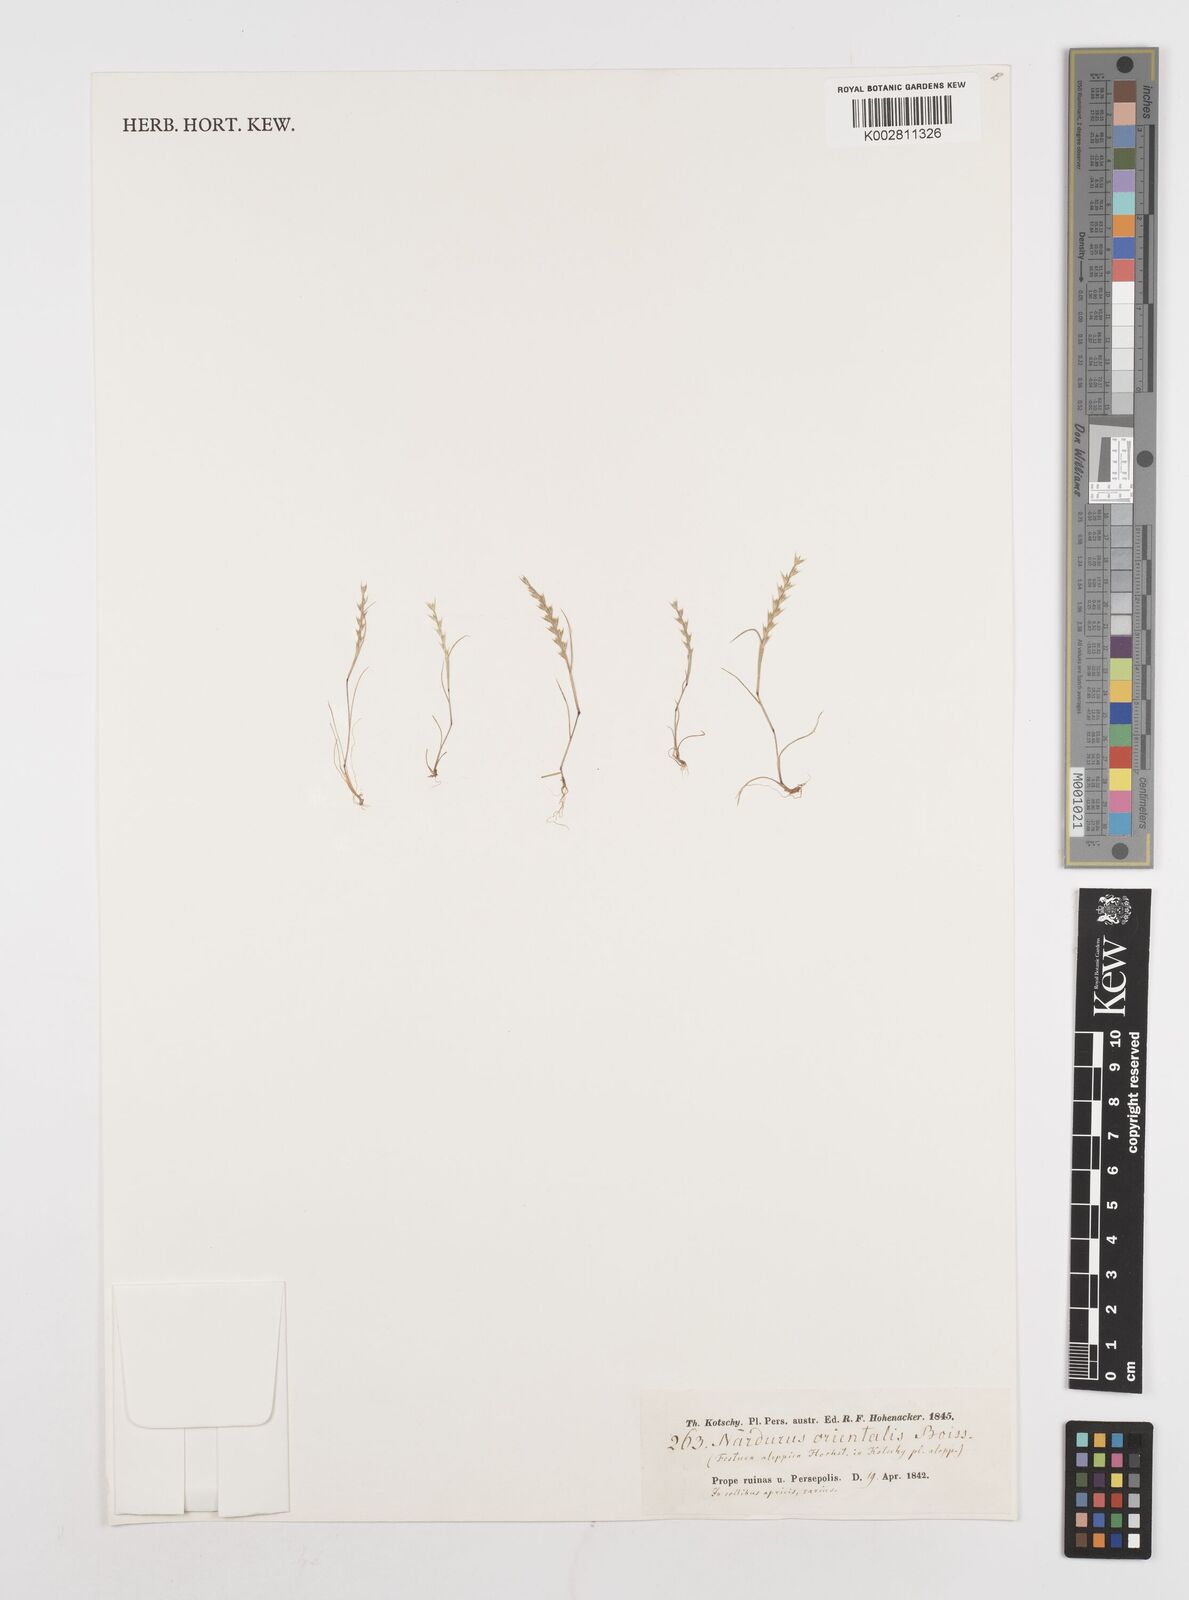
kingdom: Plantae
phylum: Tracheophyta
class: Liliopsida
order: Poales
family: Poaceae
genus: Festuca
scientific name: Festuca orientalis
